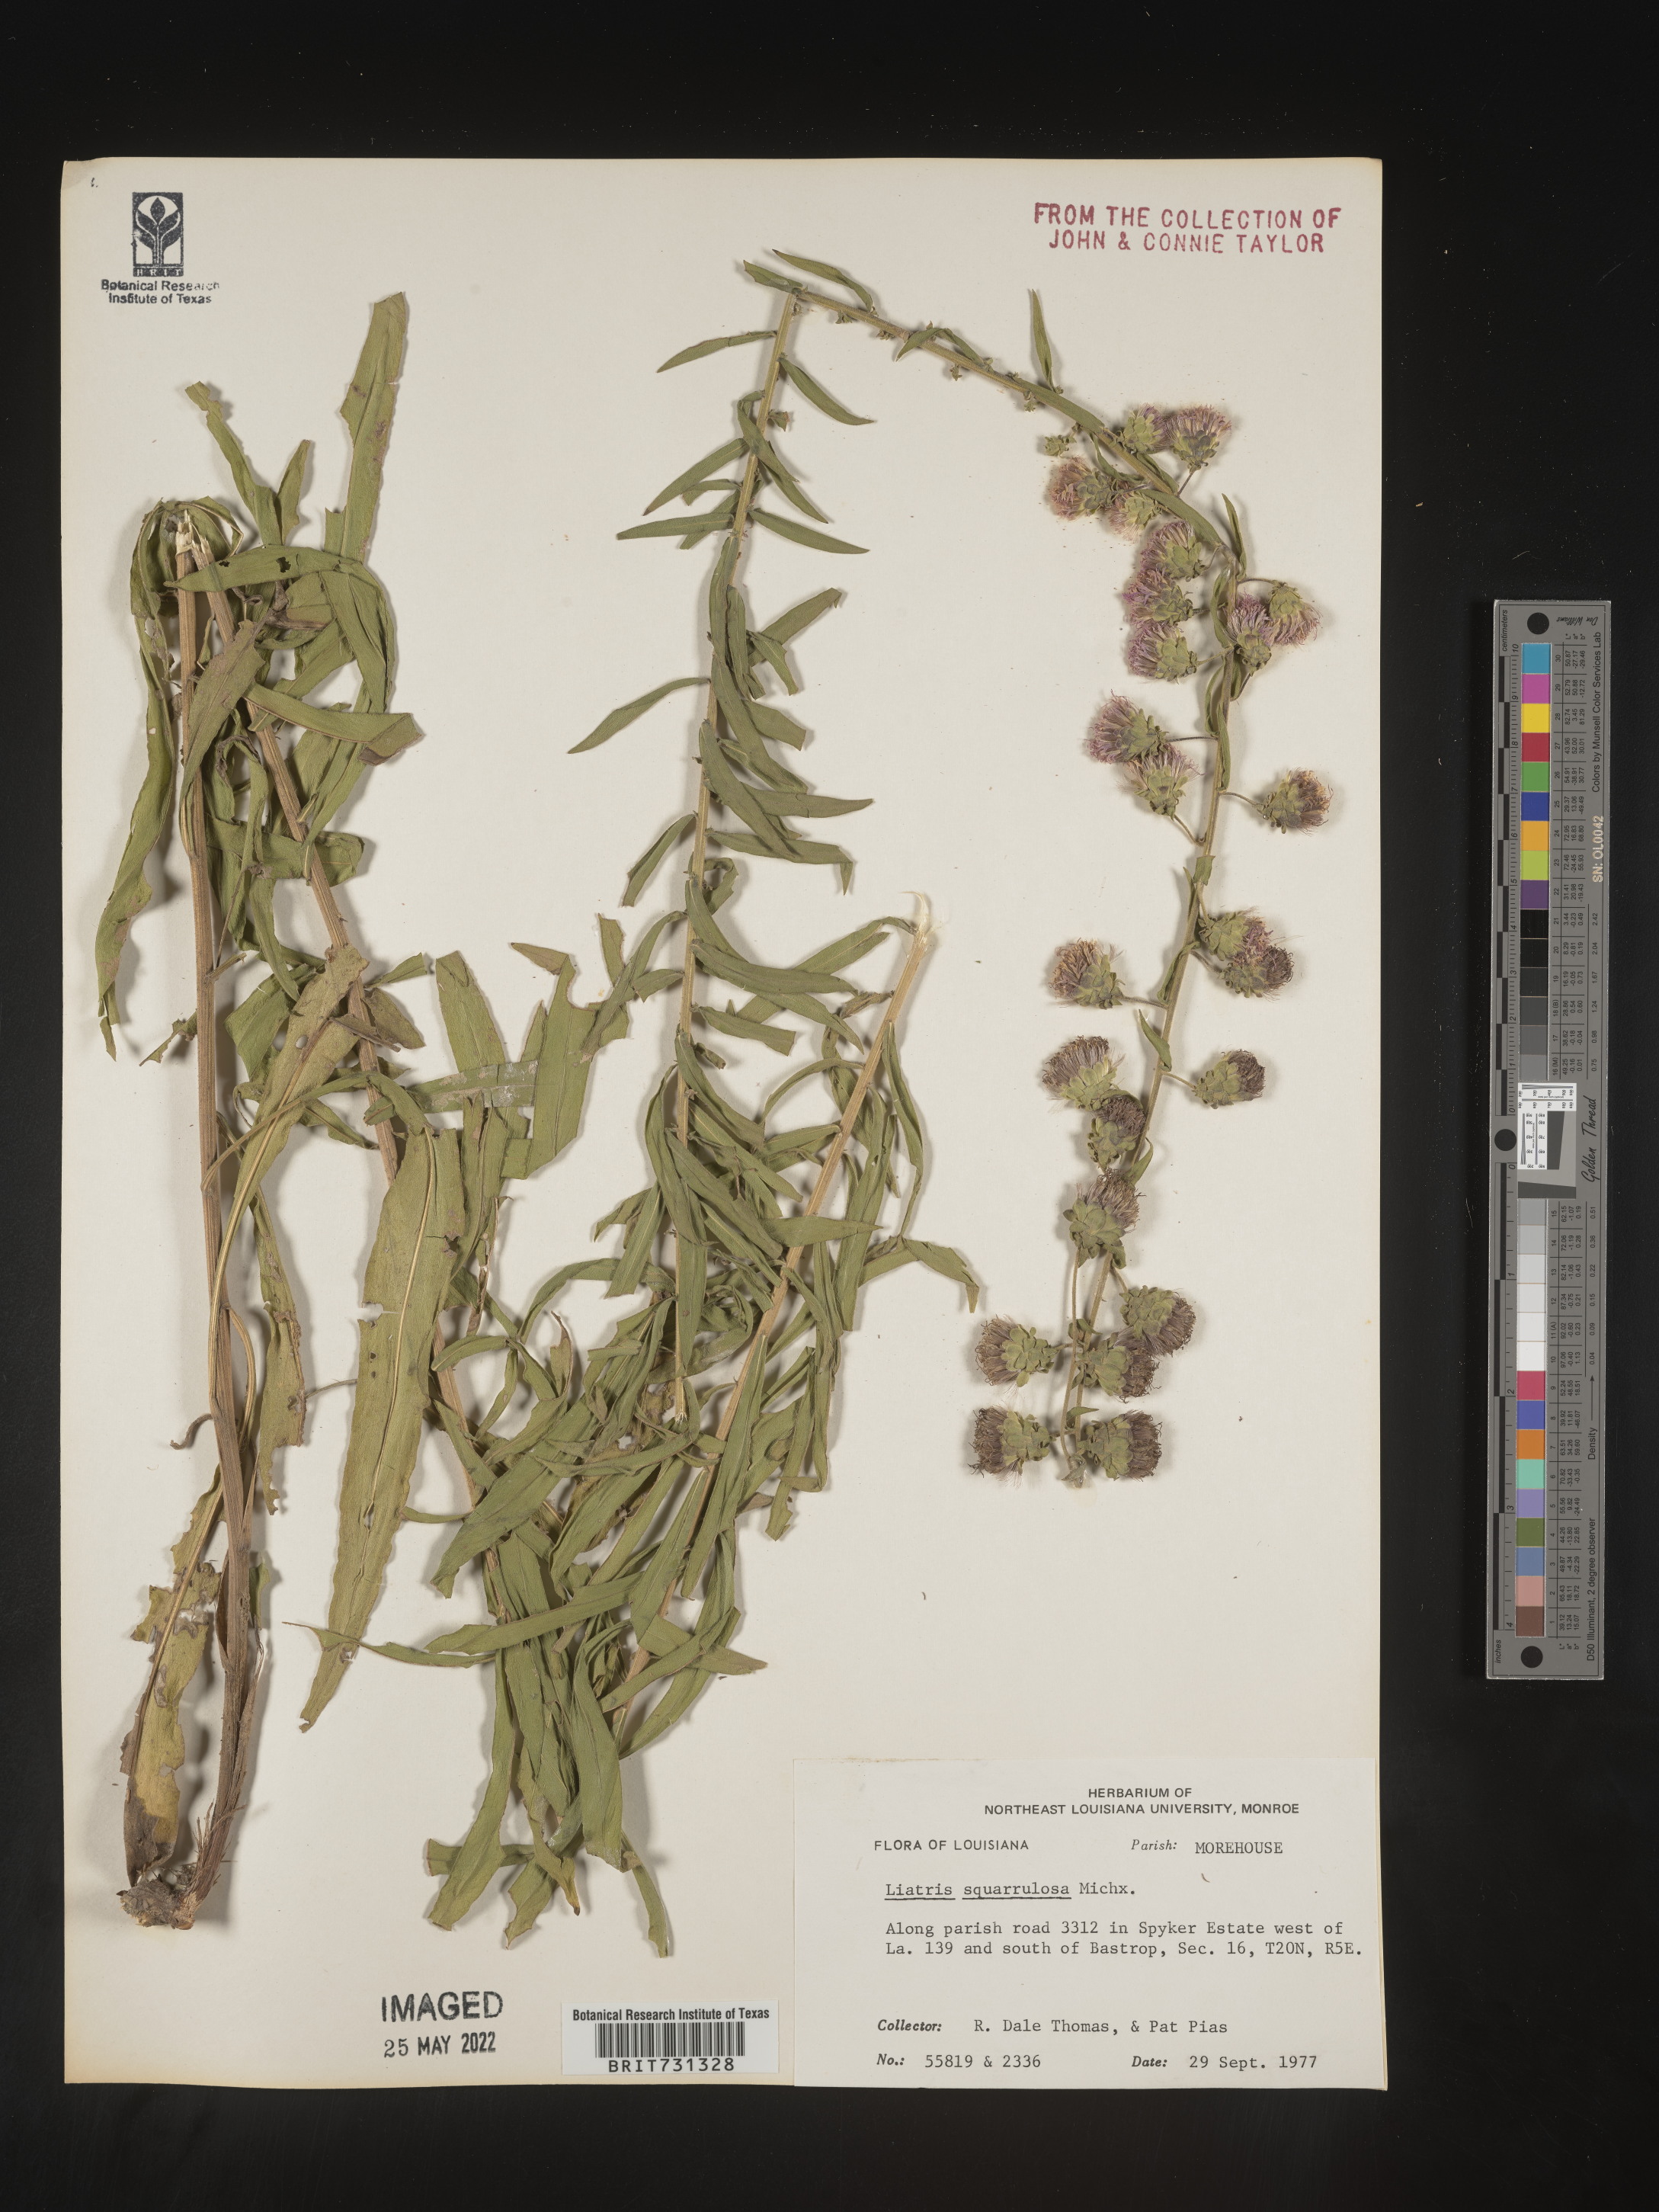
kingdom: Plantae
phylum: Tracheophyta
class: Magnoliopsida
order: Asterales
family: Asteraceae
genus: Liatris
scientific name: Liatris squarrulosa
